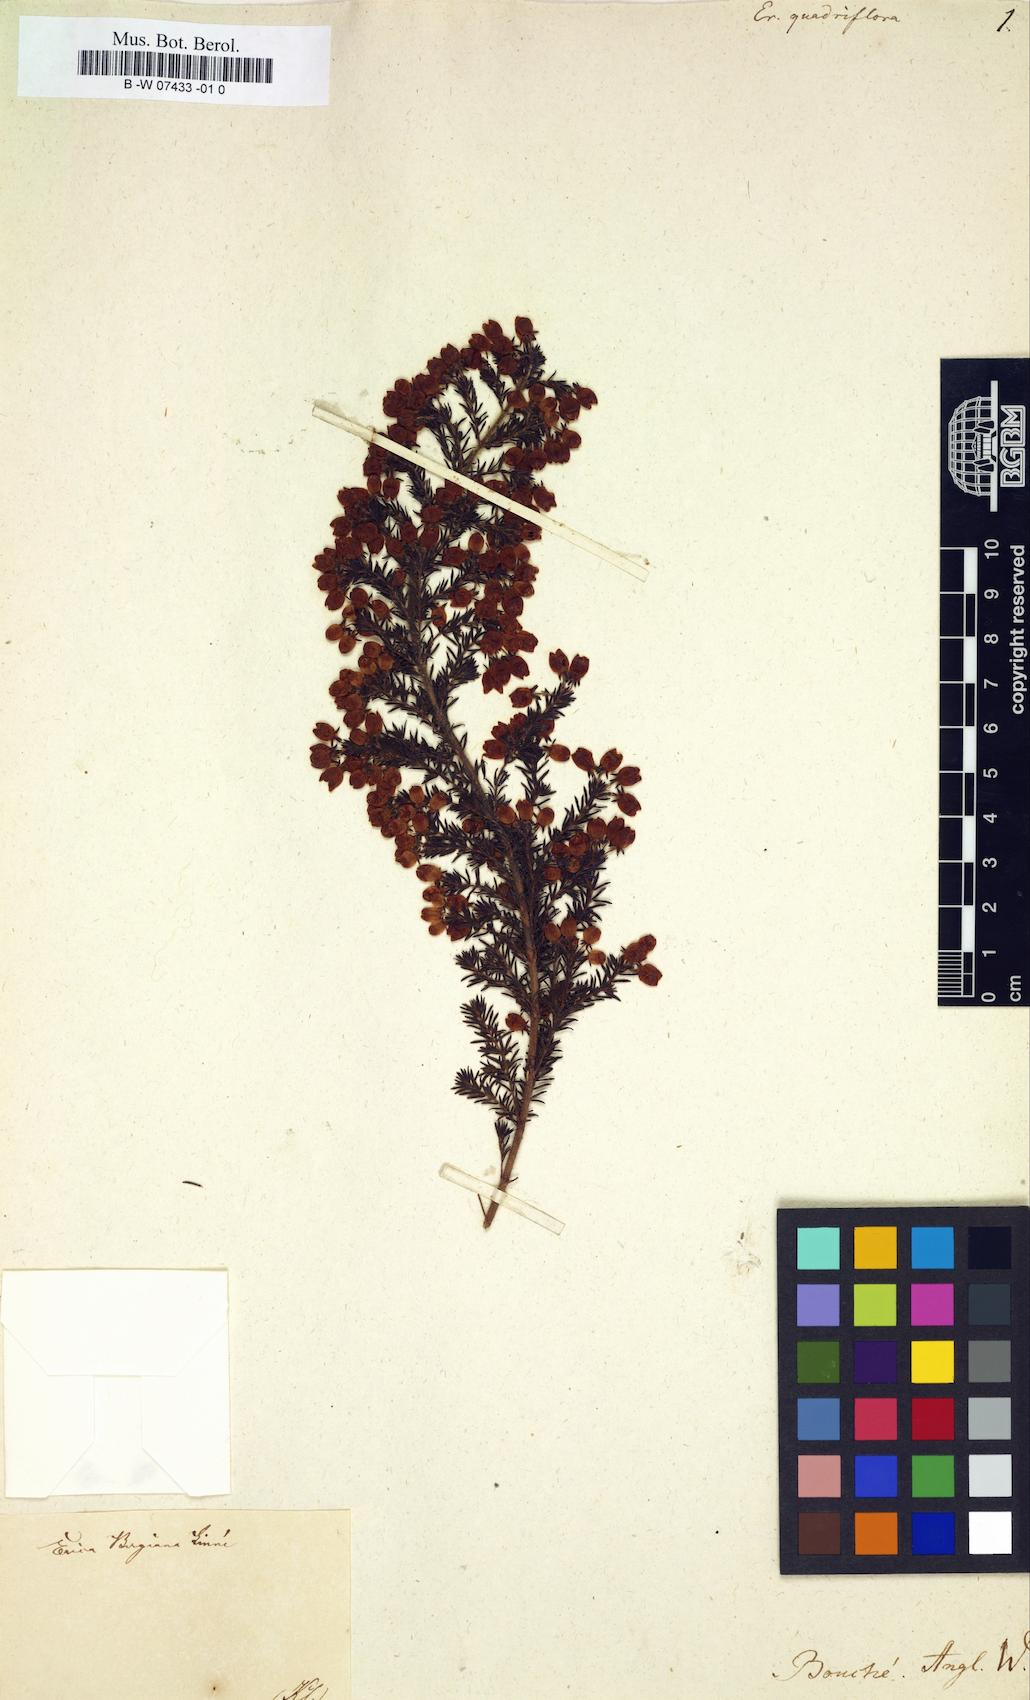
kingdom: Plantae
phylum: Tracheophyta
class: Magnoliopsida
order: Ericales
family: Ericaceae
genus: Erica
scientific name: Erica
